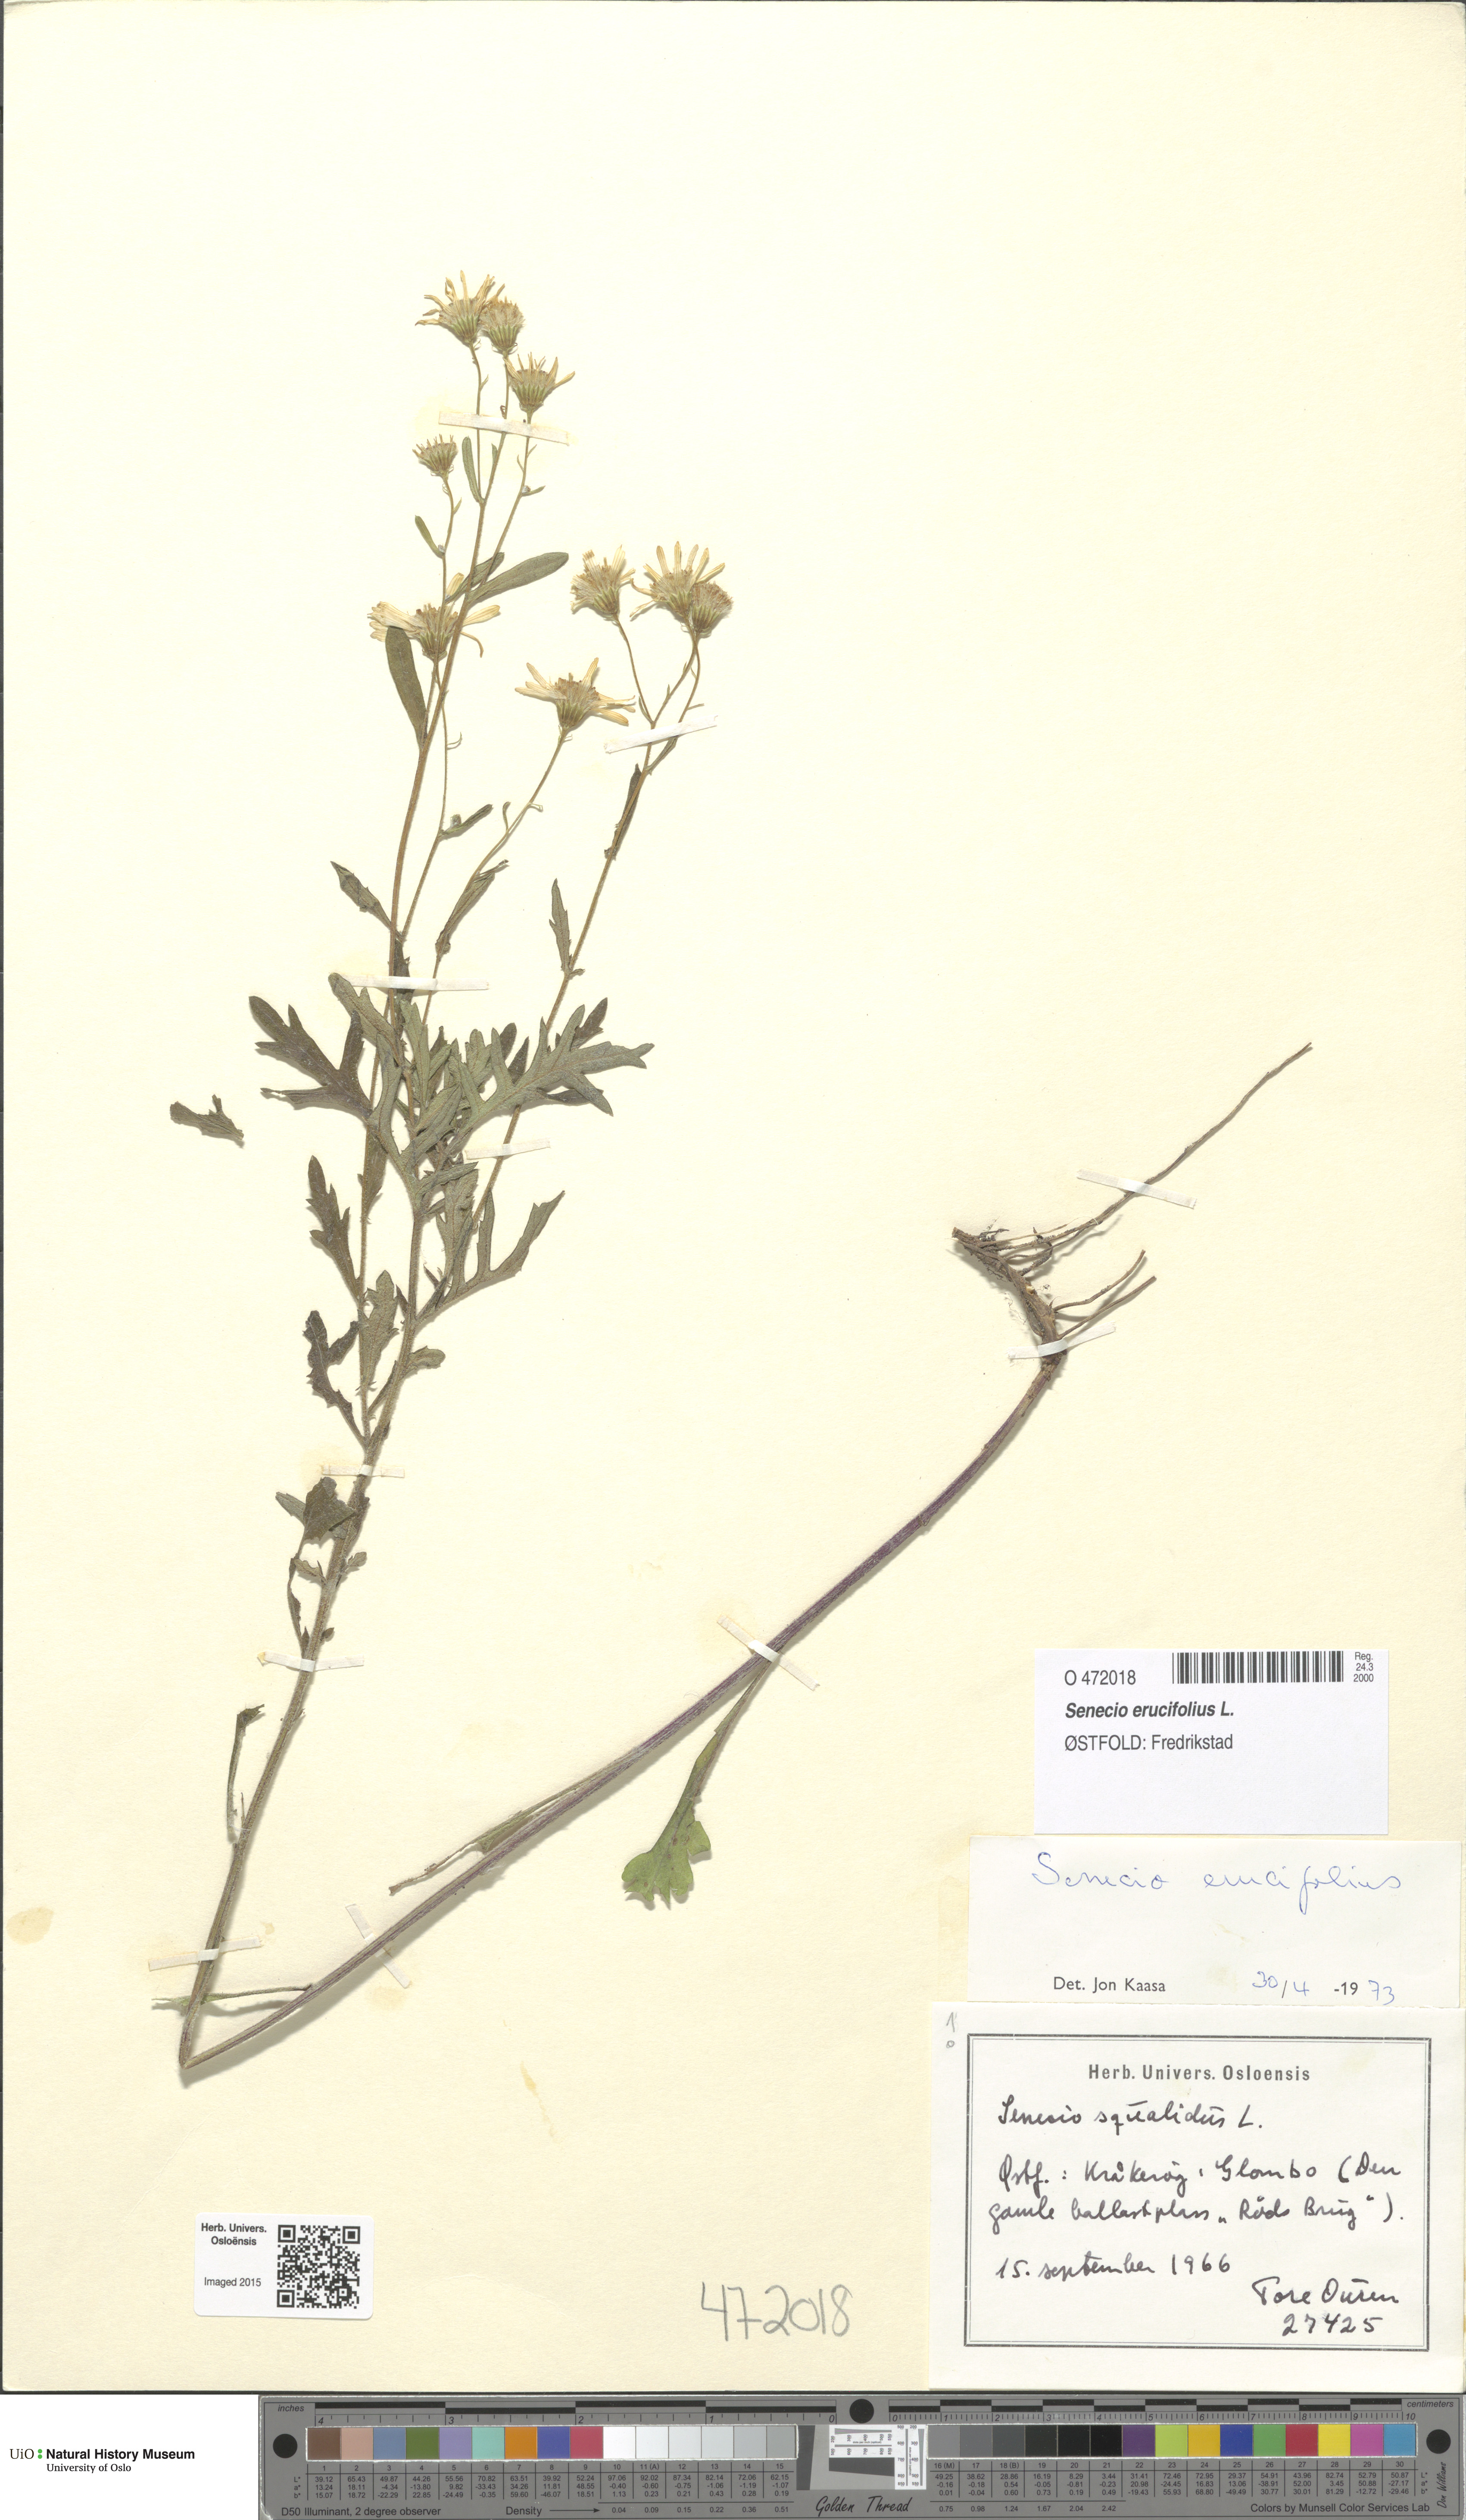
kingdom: Plantae
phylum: Tracheophyta
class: Magnoliopsida
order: Asterales
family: Asteraceae
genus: Jacobaea
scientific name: Jacobaea erucifolia
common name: Hoary ragwort
